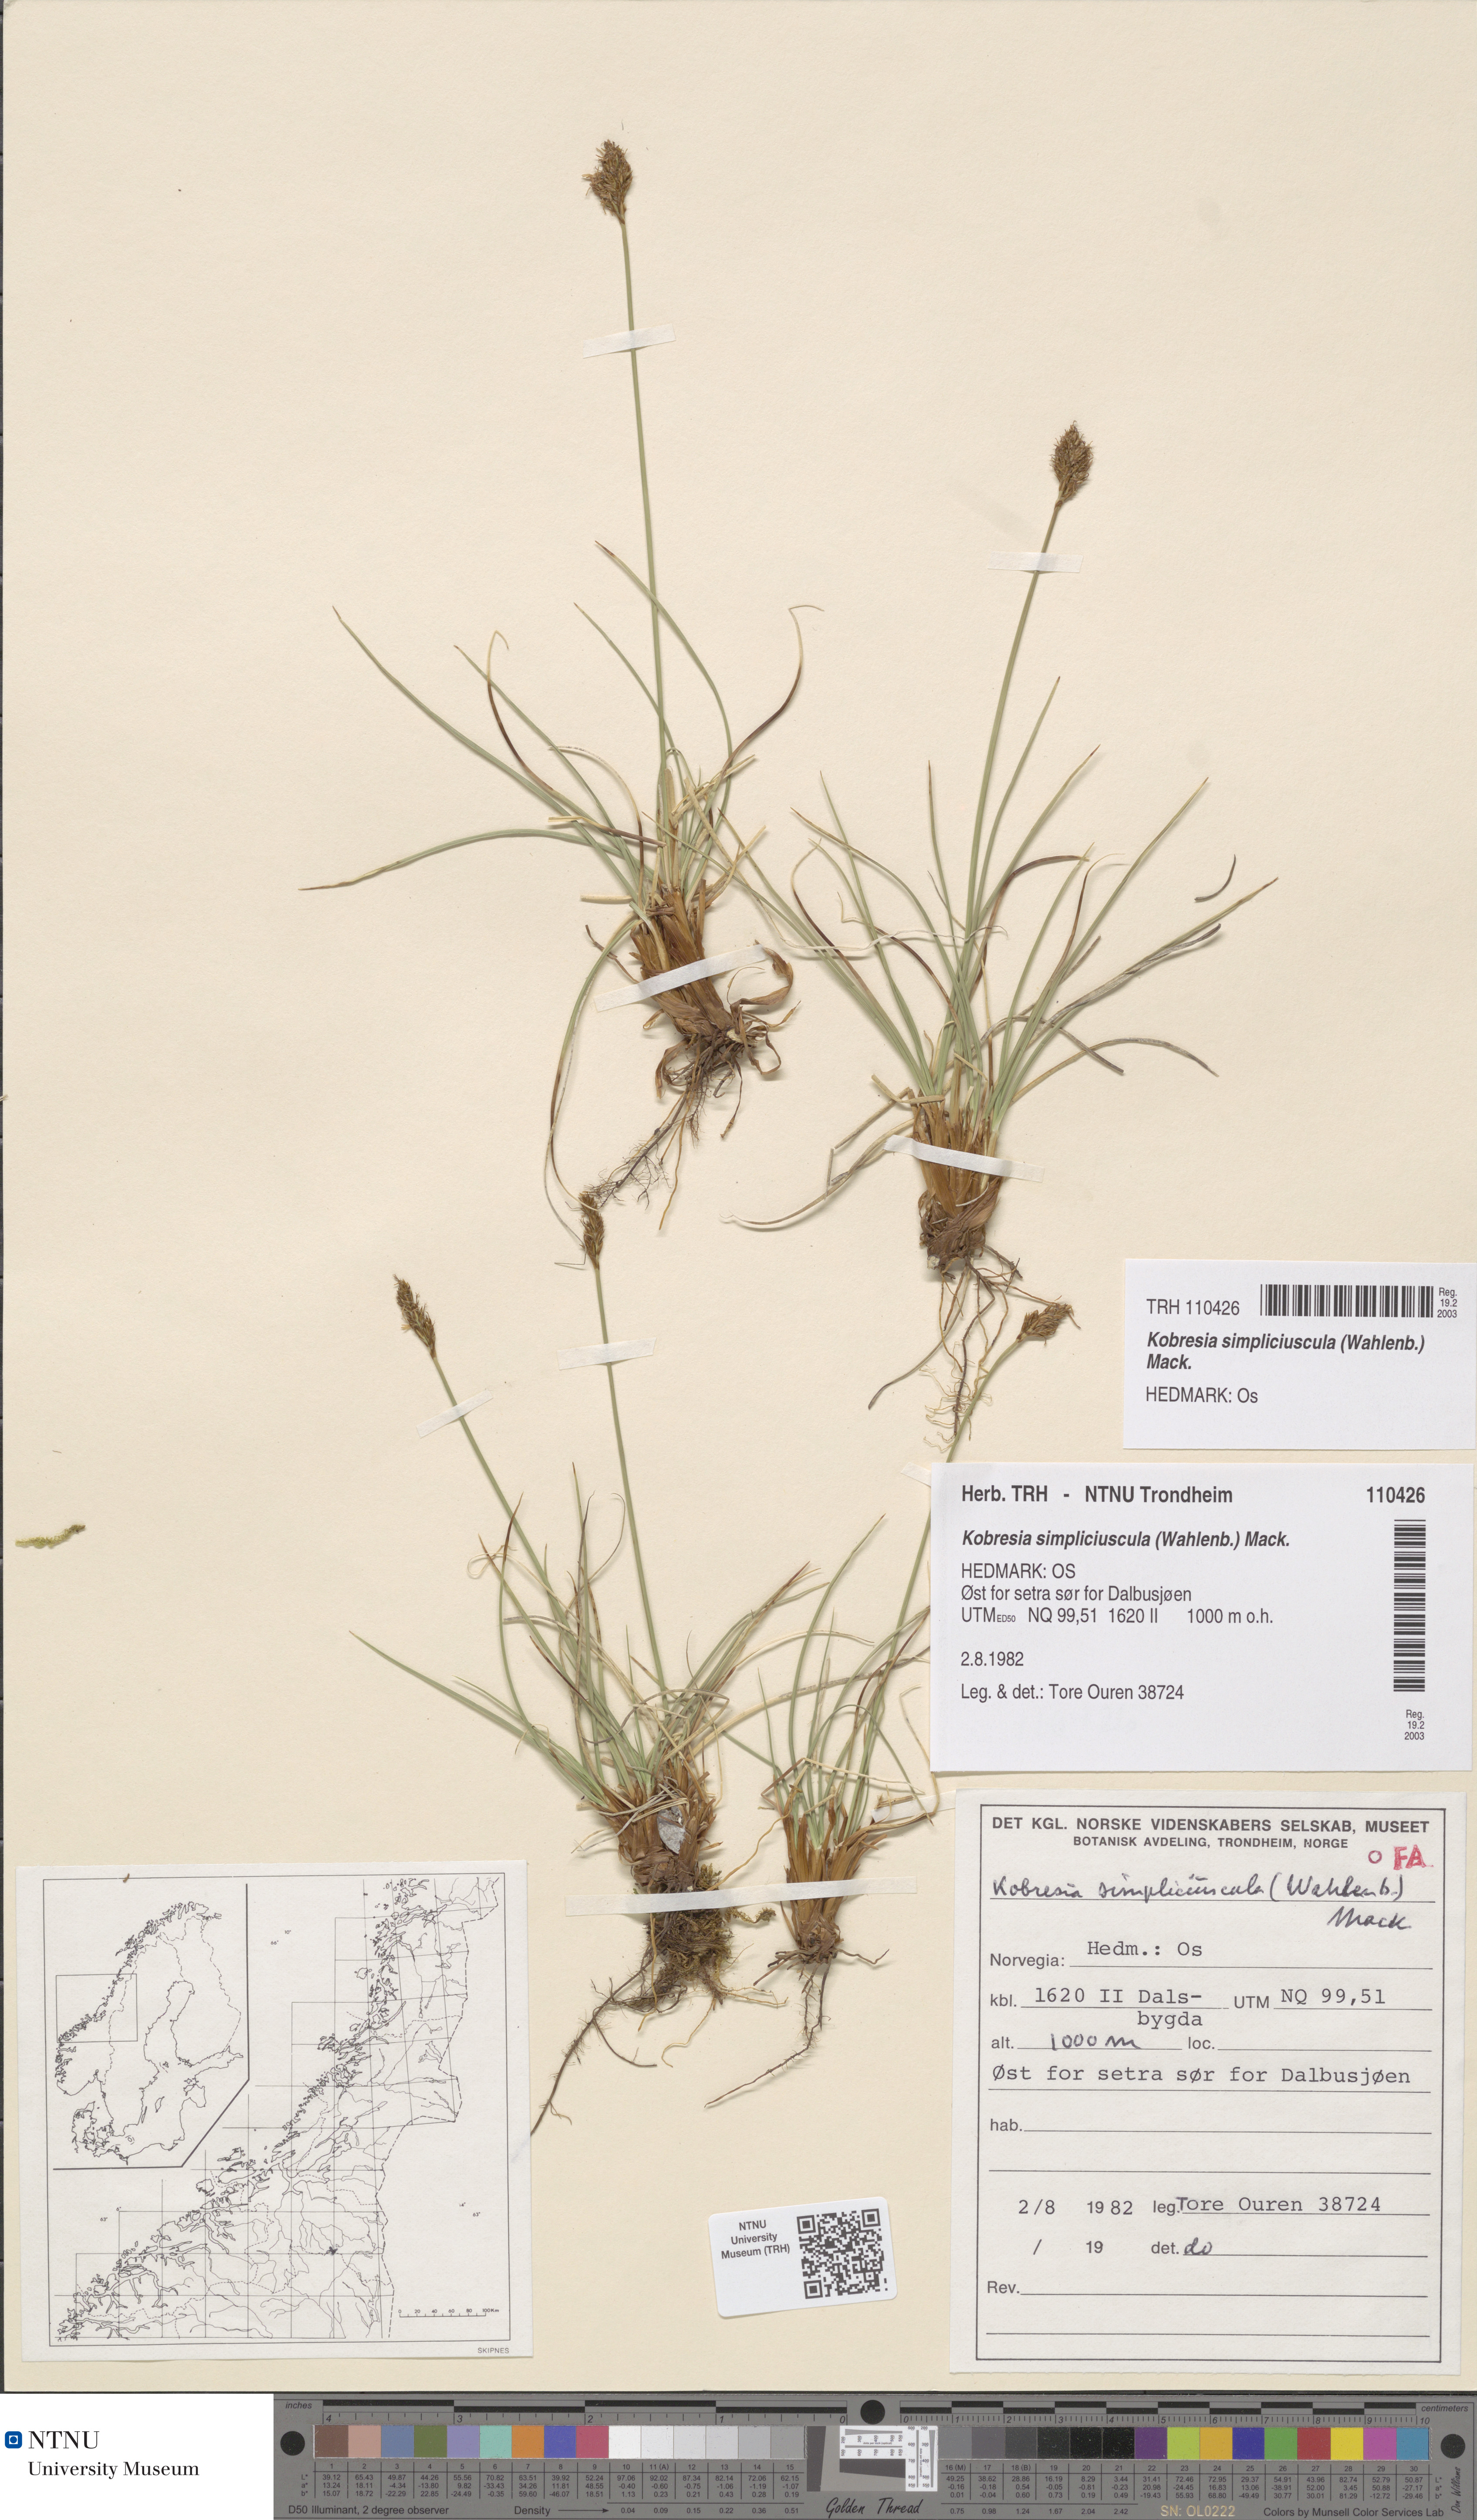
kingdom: Plantae
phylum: Tracheophyta
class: Liliopsida
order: Poales
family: Cyperaceae
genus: Carex
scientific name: Carex simpliciuscula
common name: Simple bog sedge
